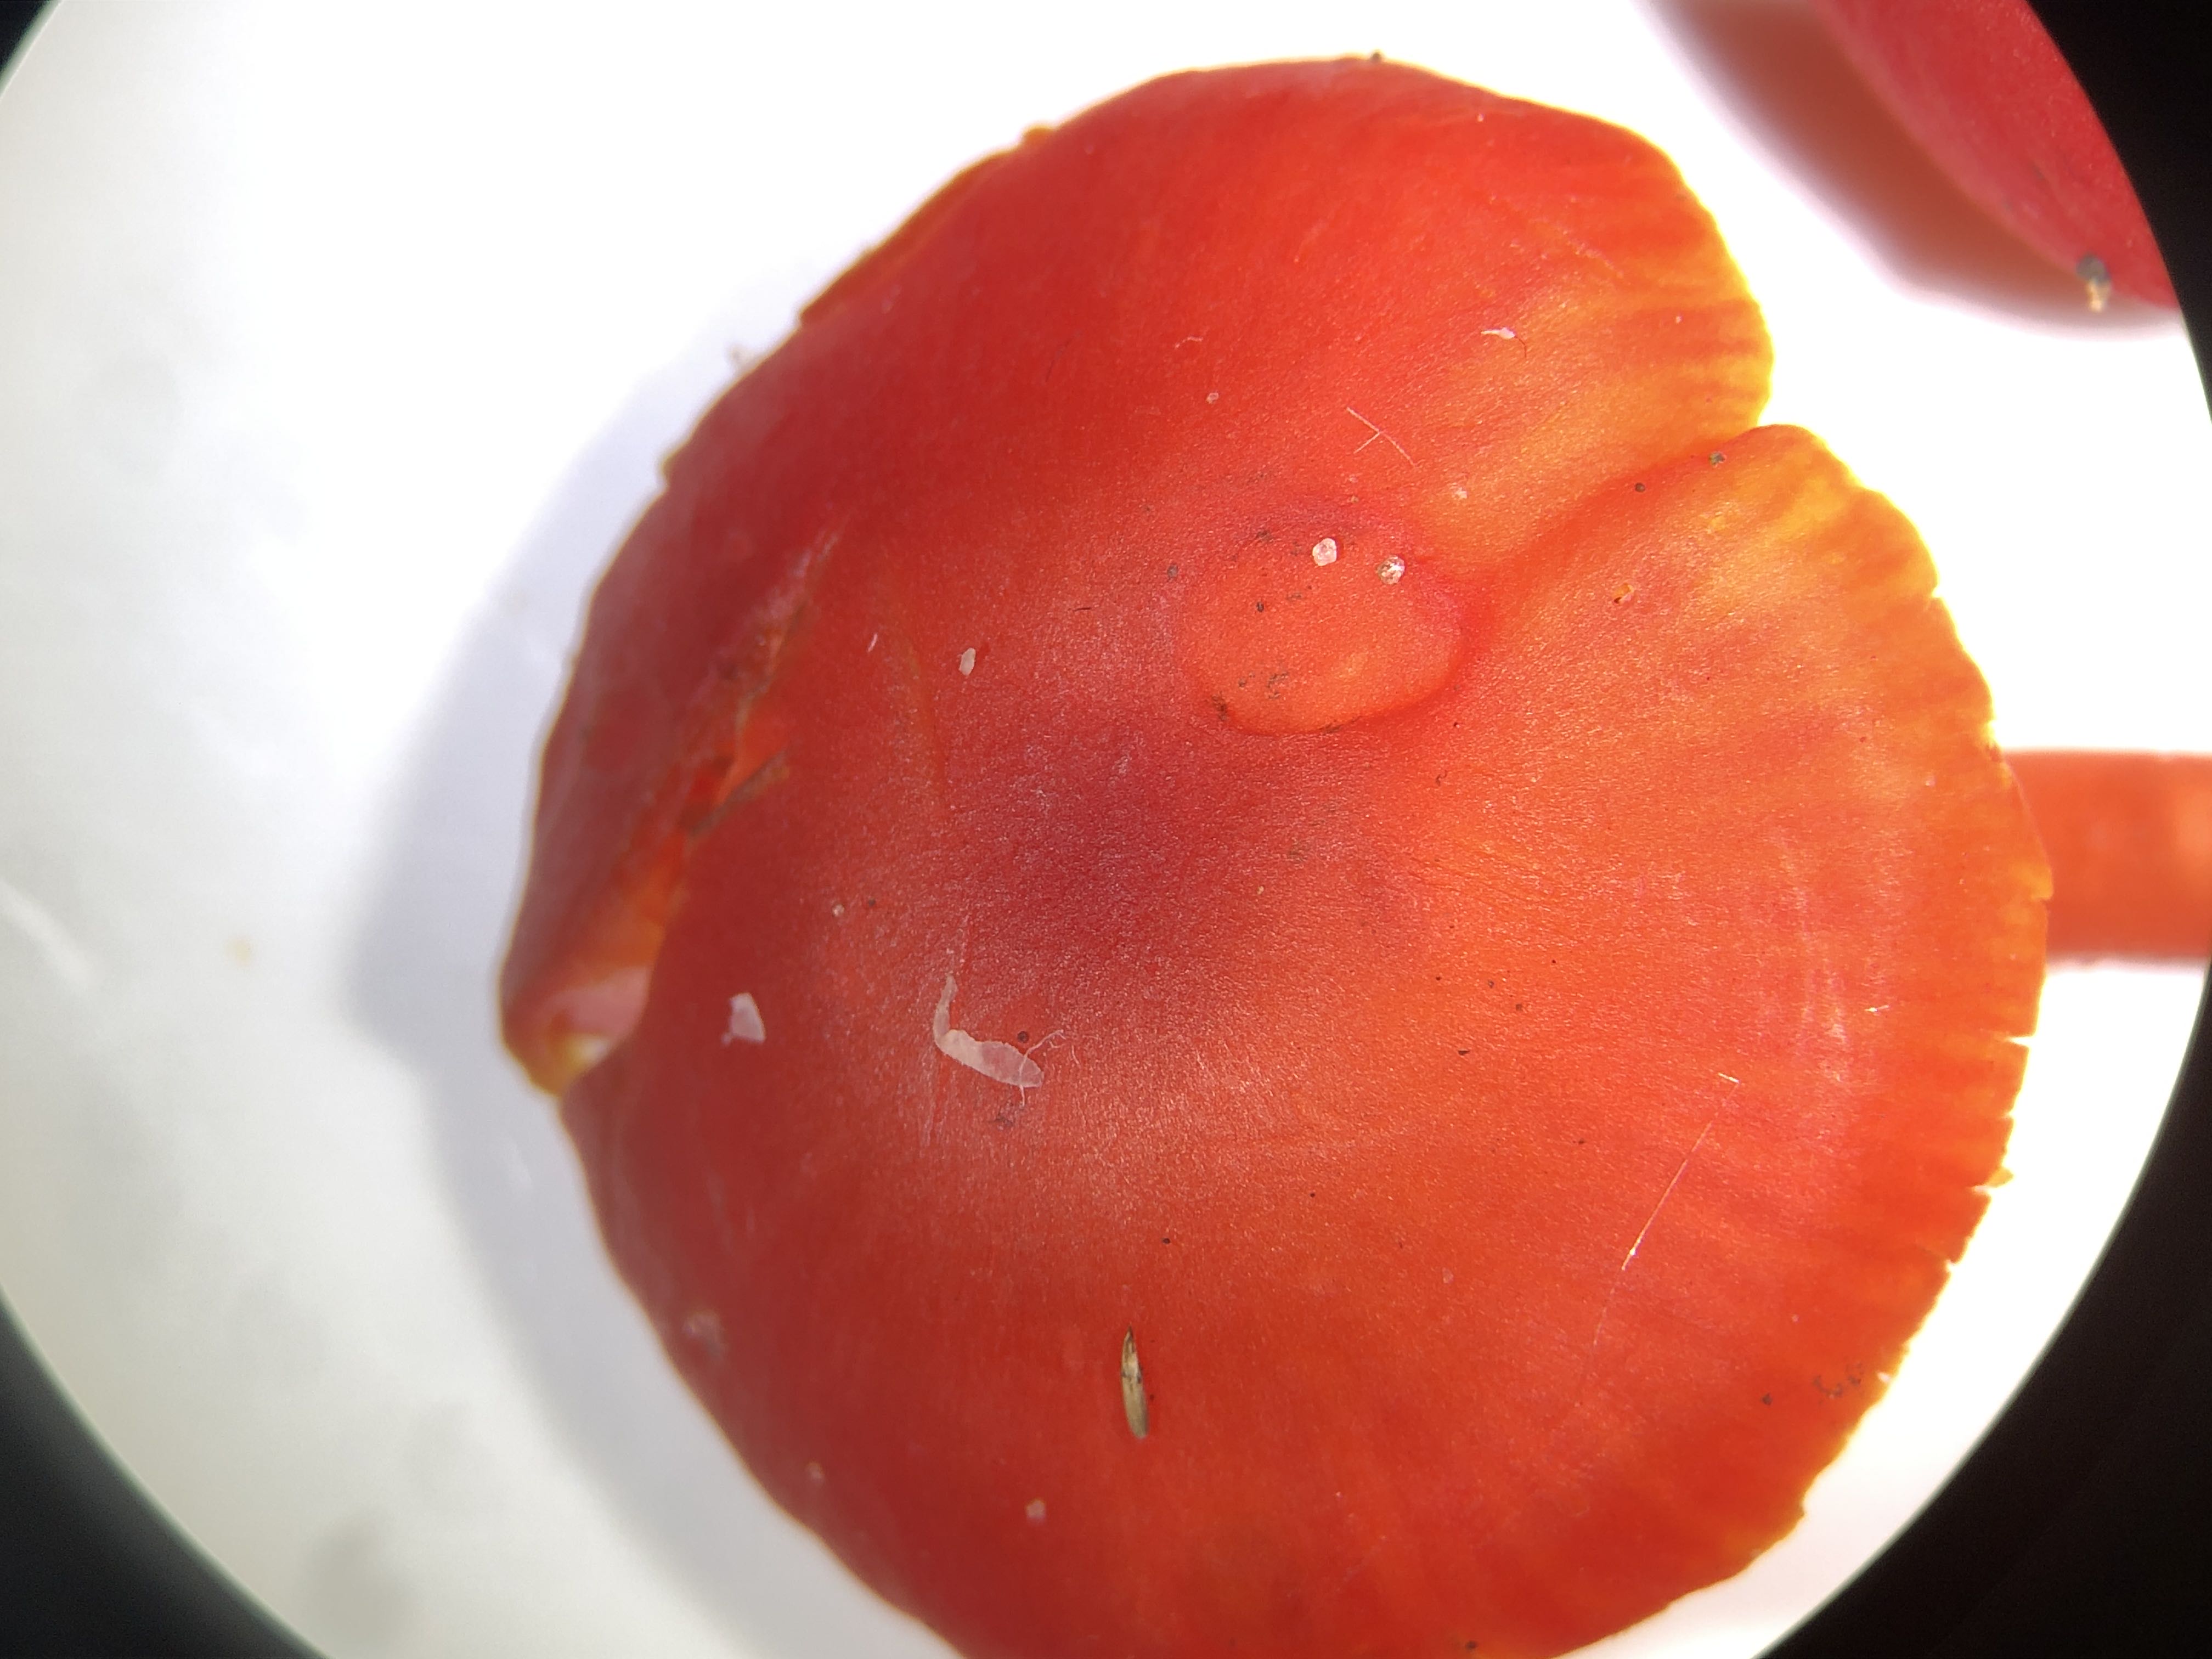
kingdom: Fungi
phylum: Basidiomycota
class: Agaricomycetes
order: Agaricales
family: Hygrophoraceae
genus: Hygrocybe
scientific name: Hygrocybe phaeococcinea
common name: sortdugget vokshat
